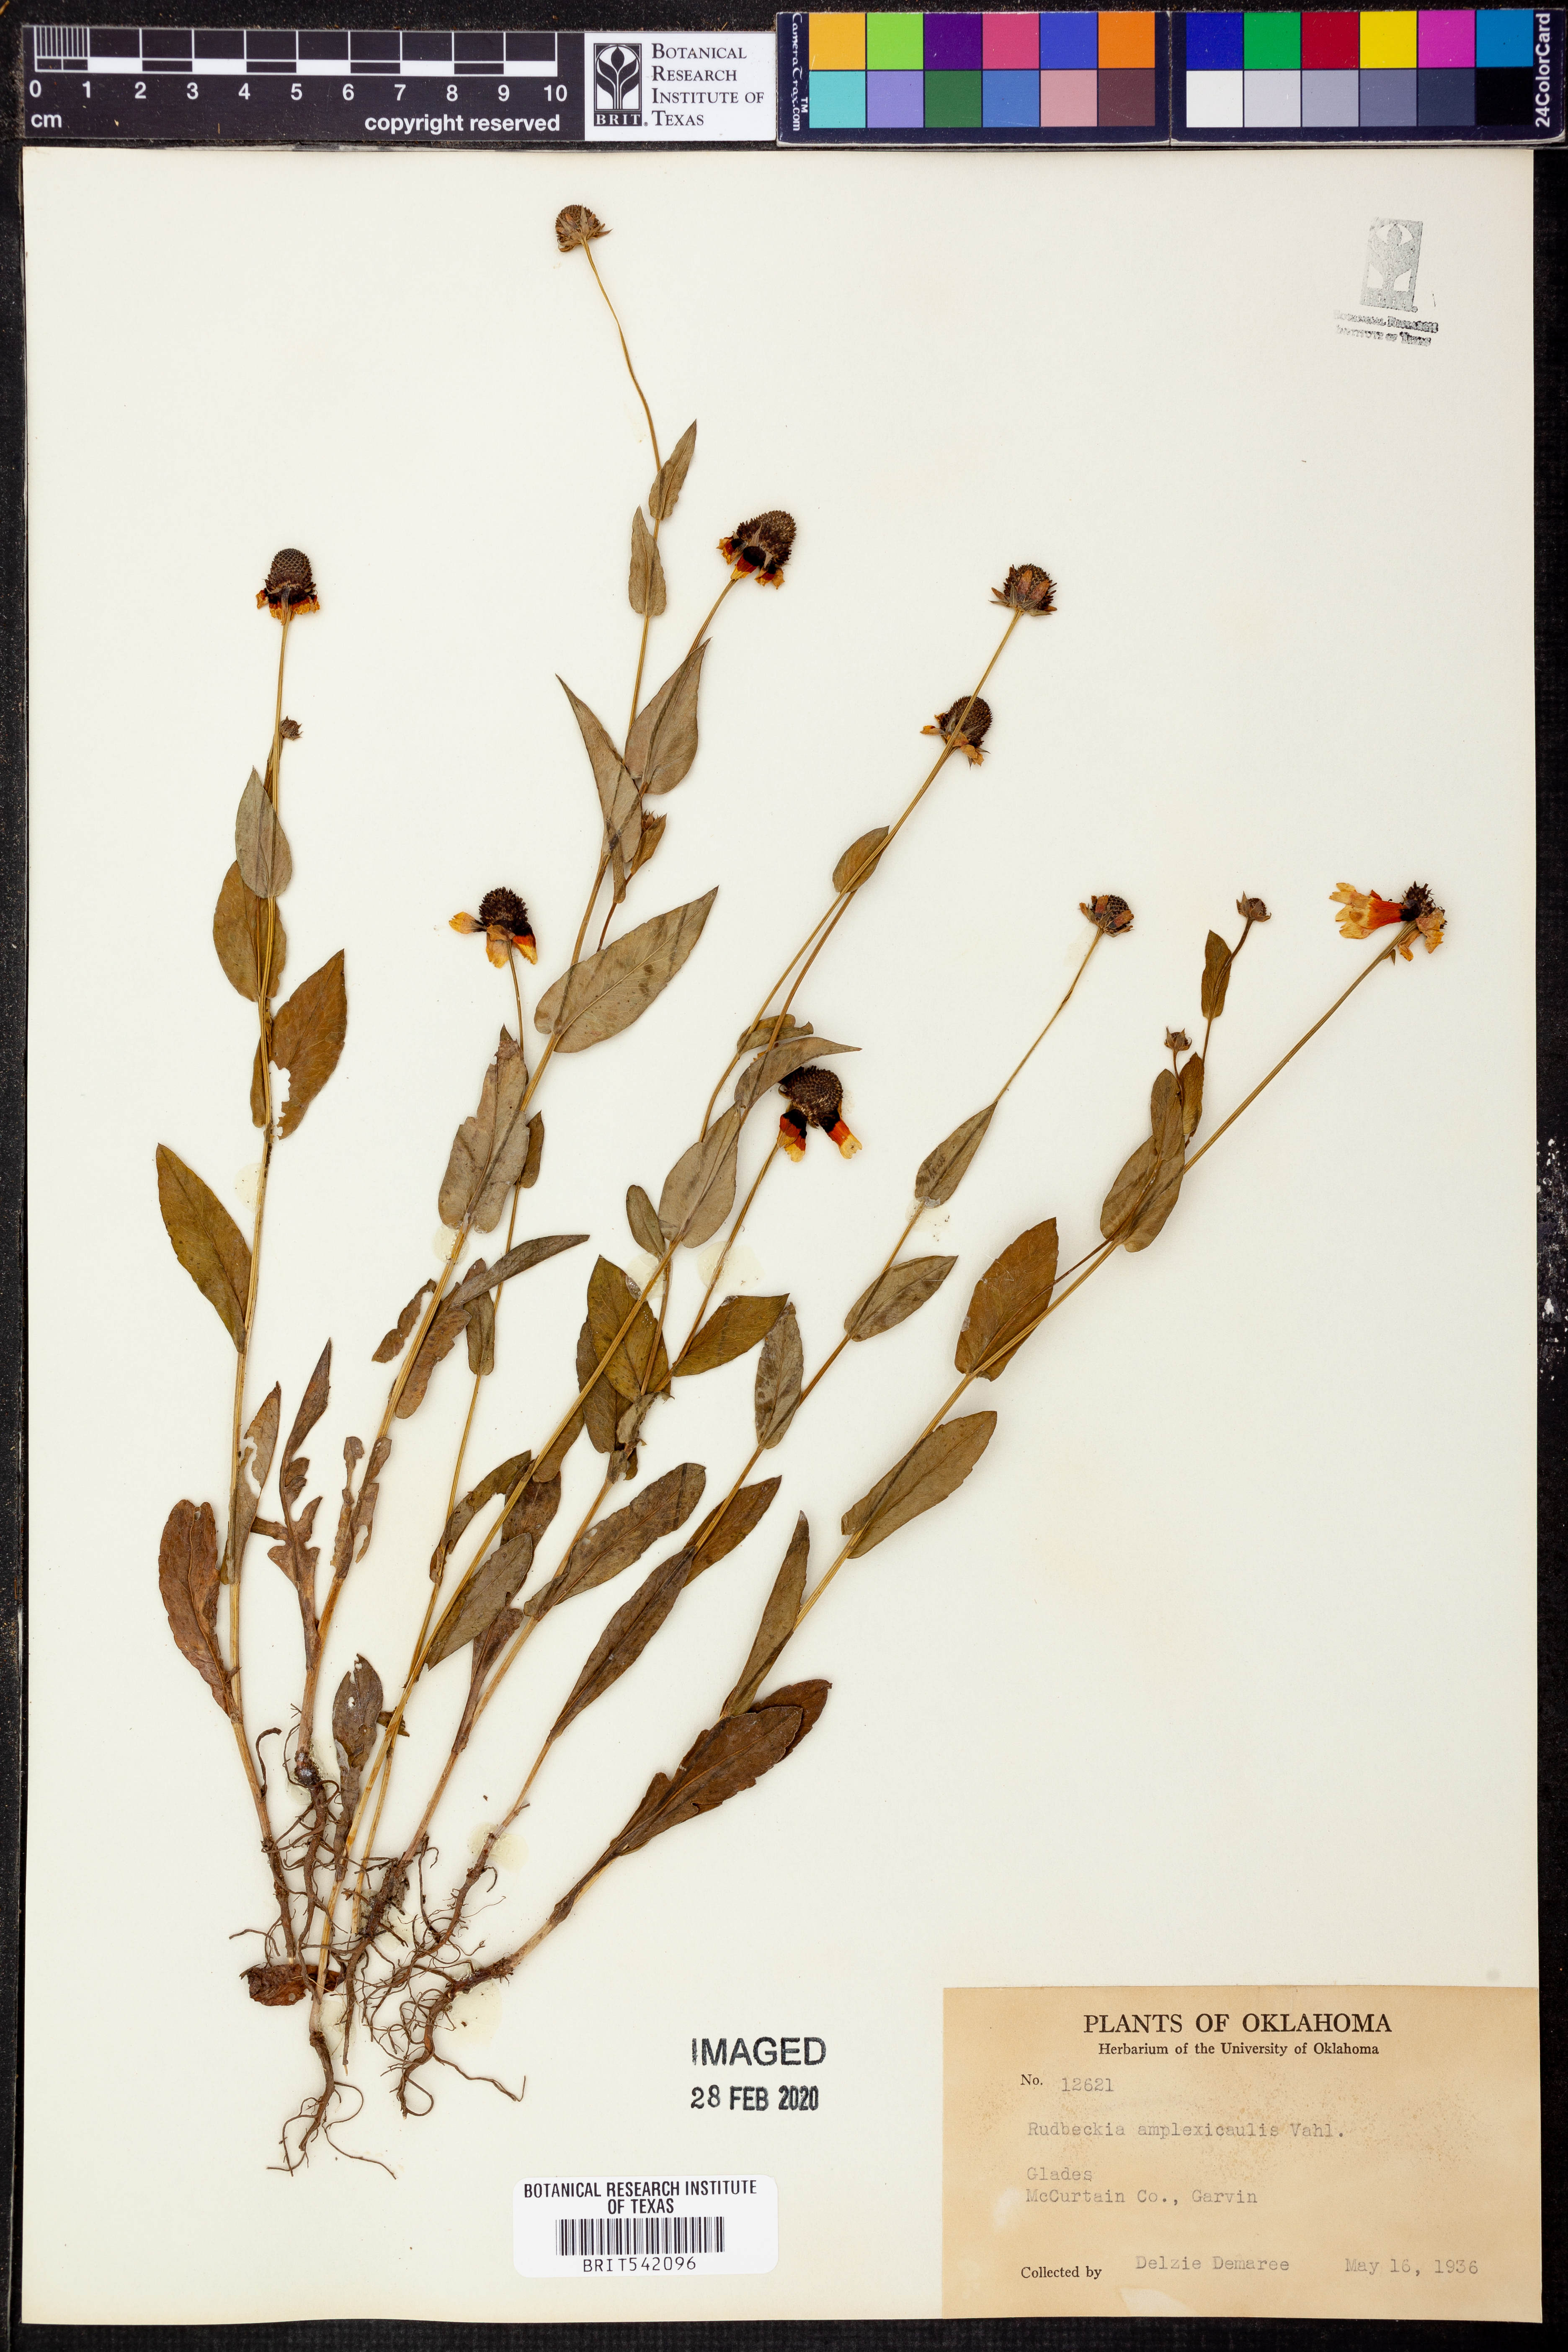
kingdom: Plantae
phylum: Tracheophyta
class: Magnoliopsida
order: Asterales
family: Asteraceae
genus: Rudbeckia
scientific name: Rudbeckia amplexicaulis
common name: Clasping-leaf coneflower
